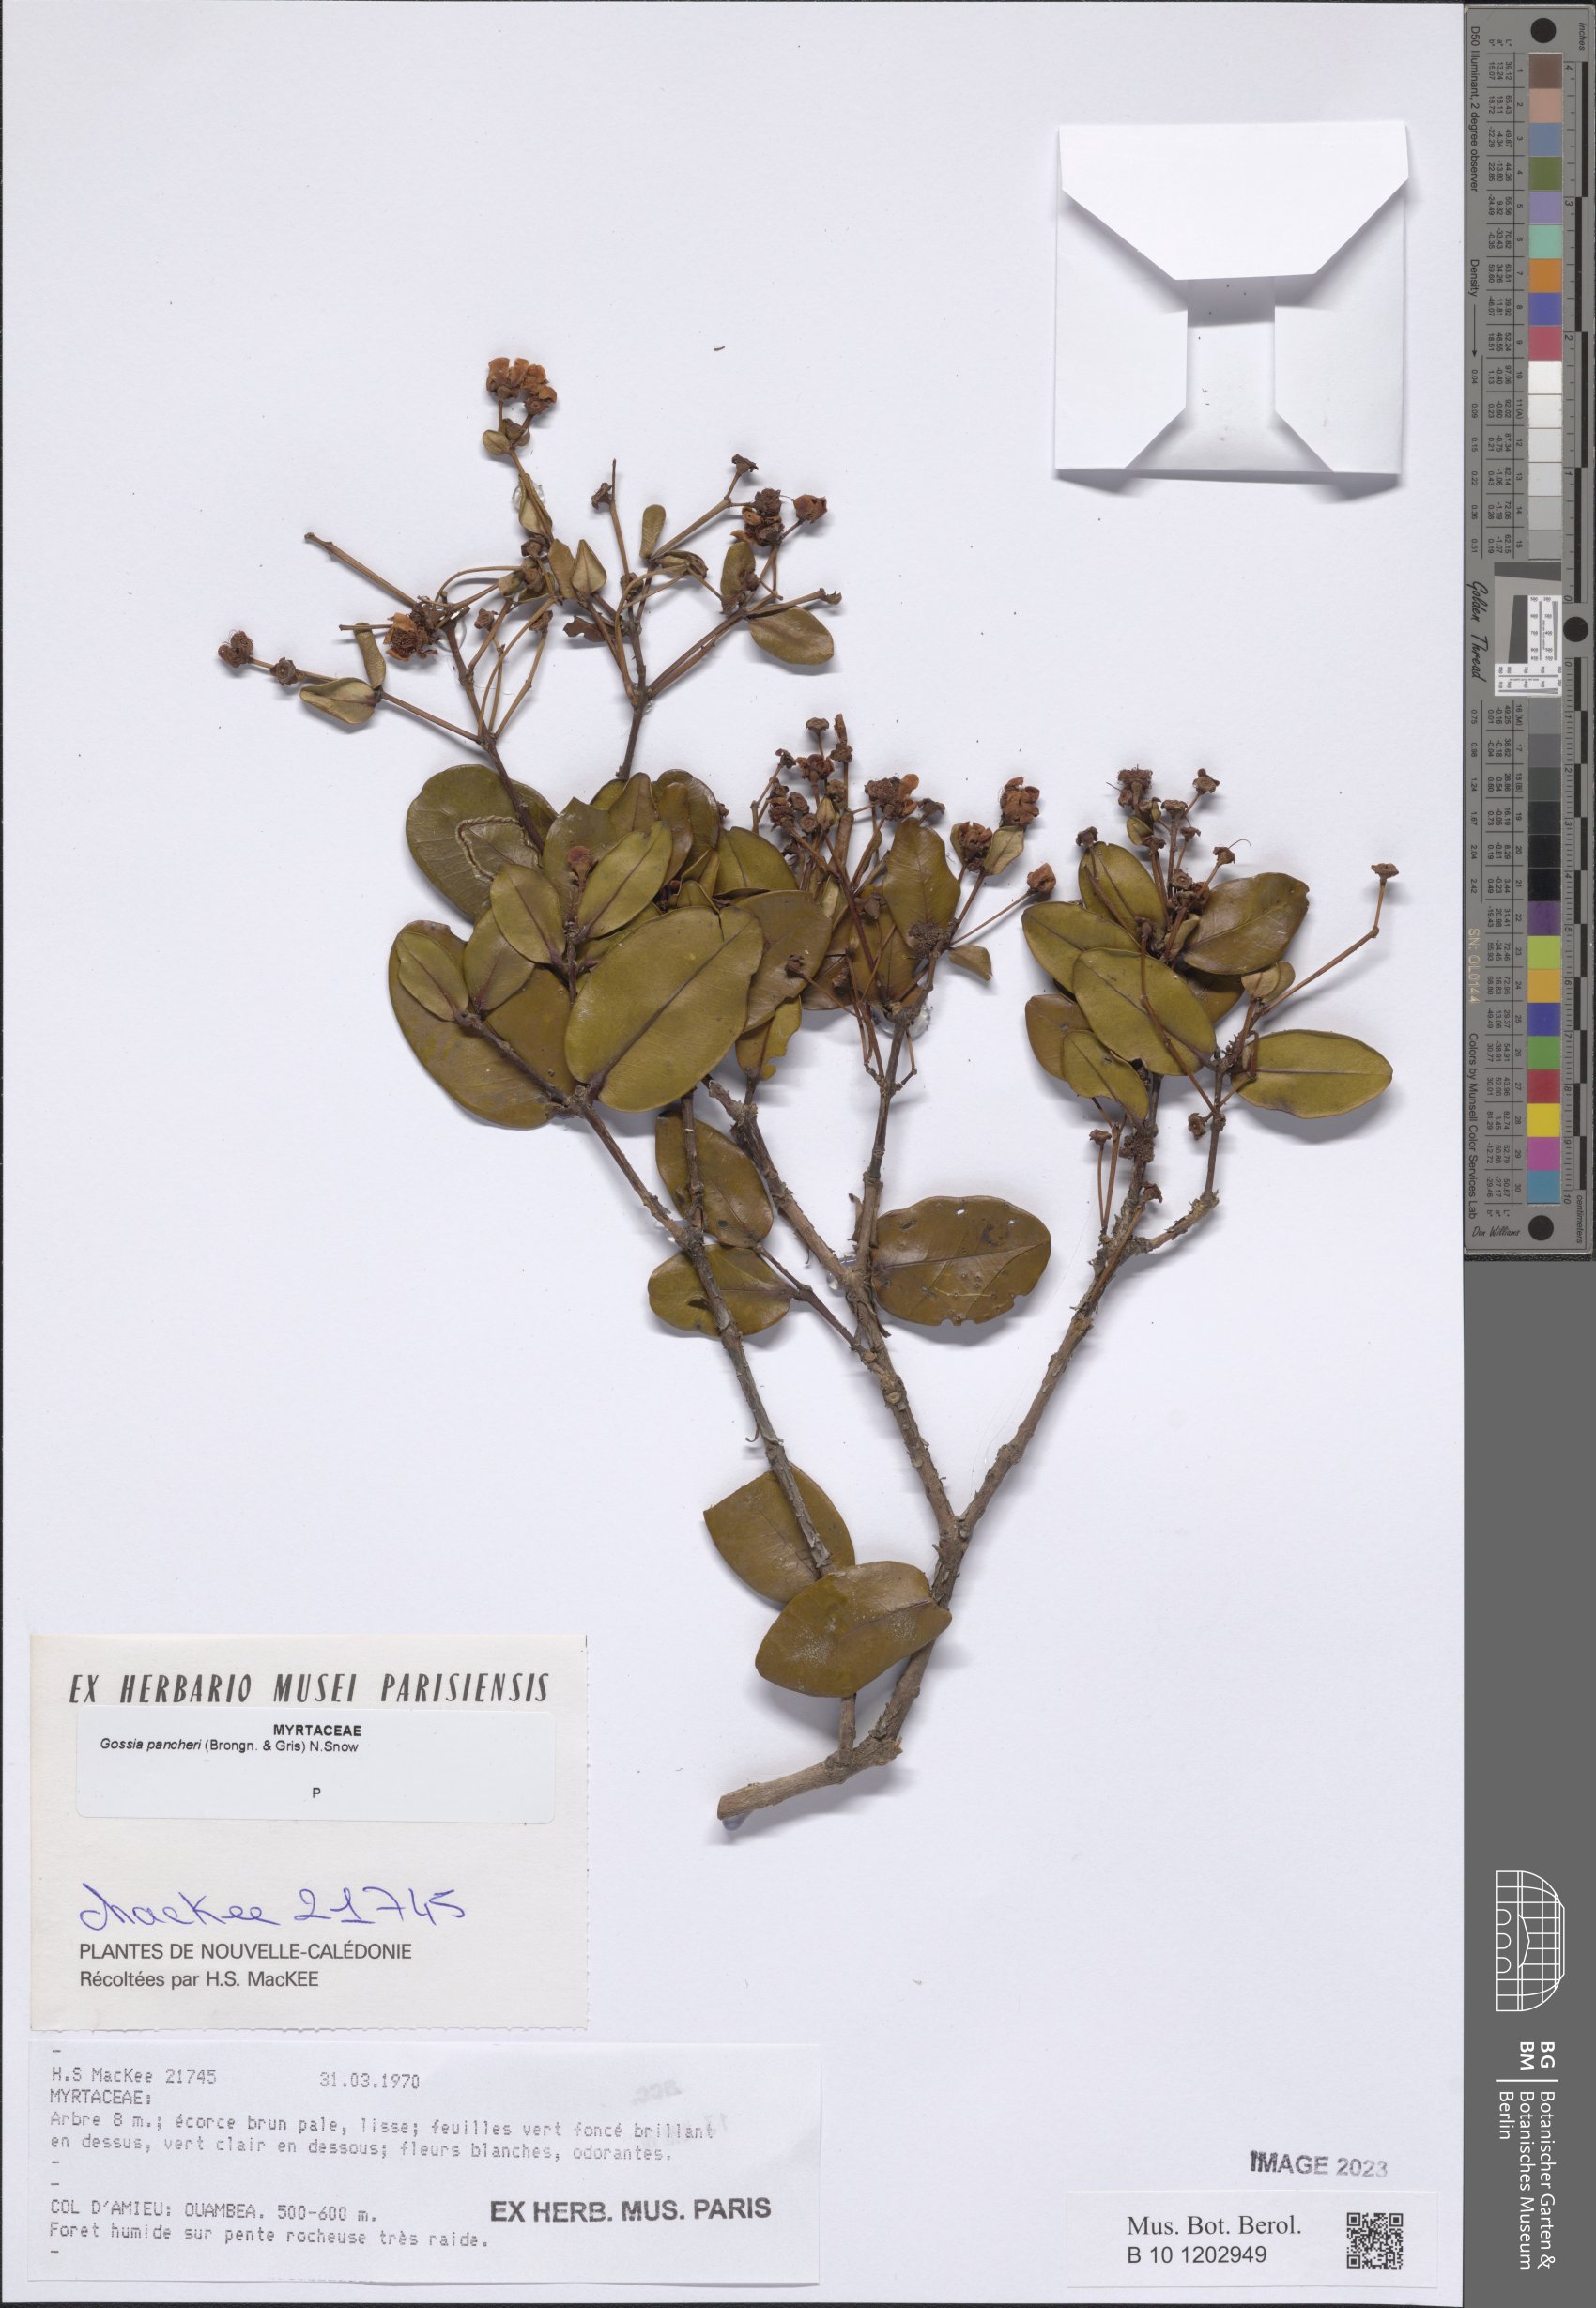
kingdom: Plantae
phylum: Tracheophyta
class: Magnoliopsida
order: Myrtales
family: Myrtaceae
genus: Gossia
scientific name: Gossia pancheri
